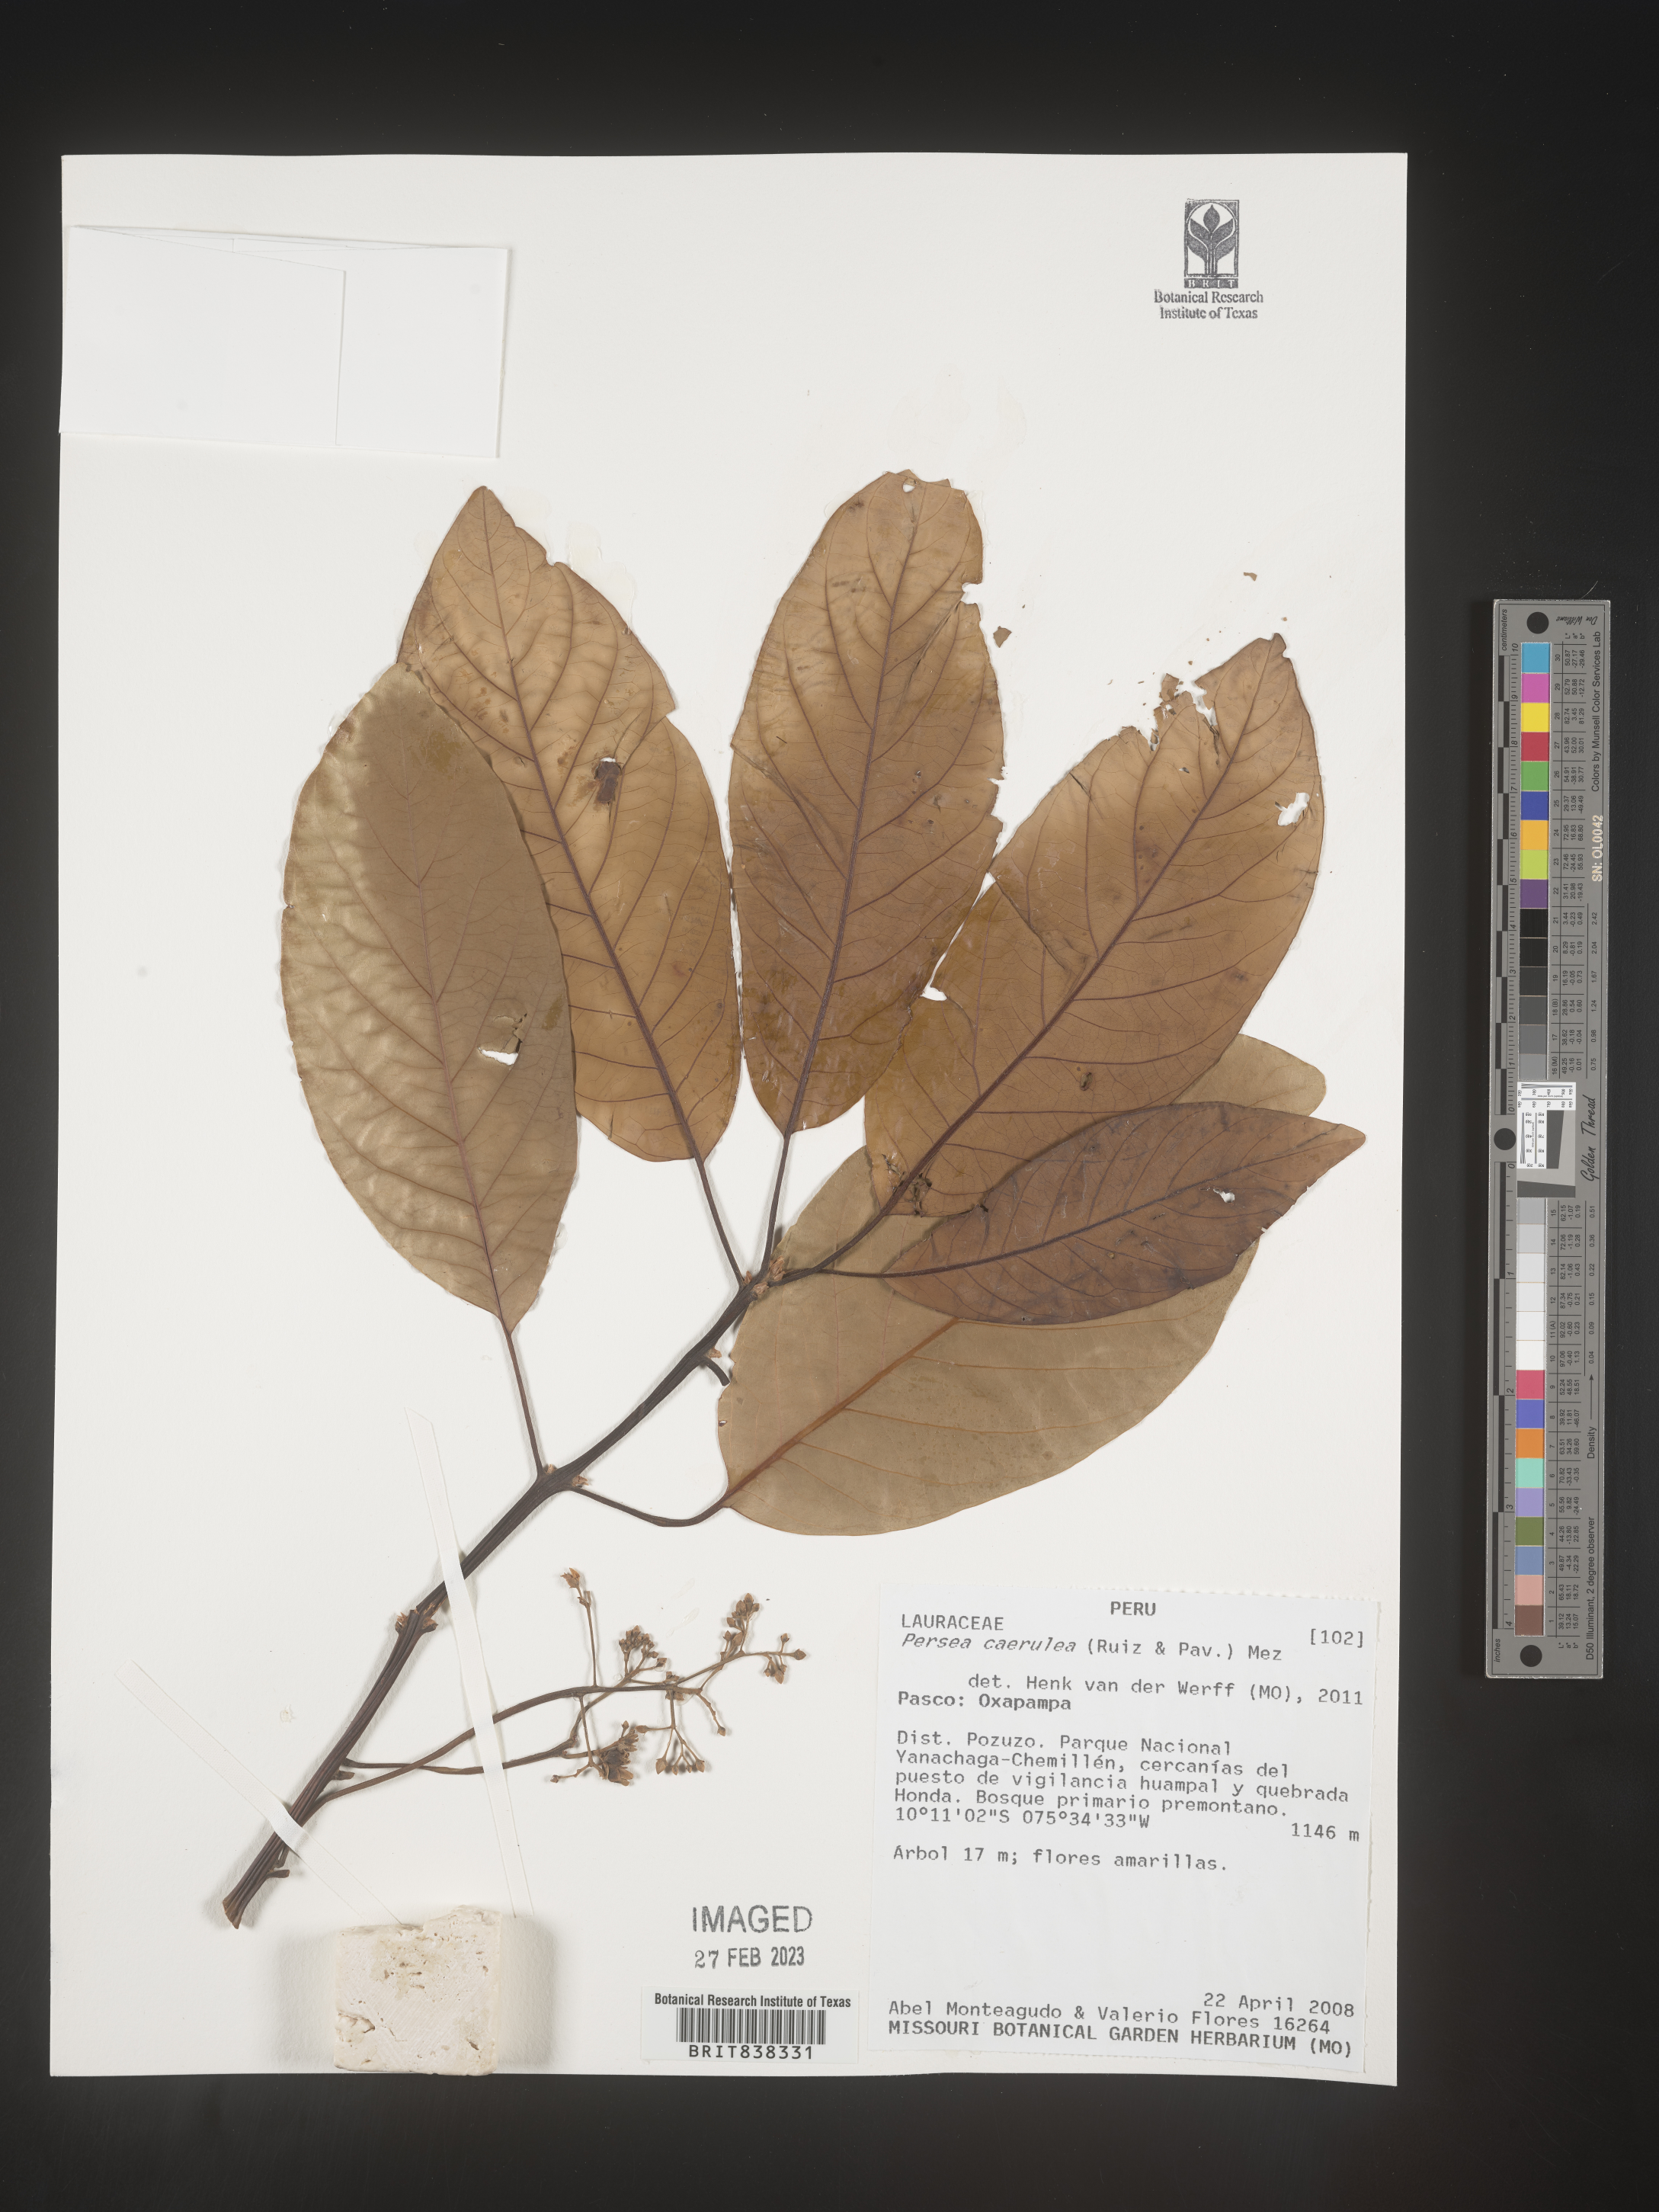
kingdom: Plantae
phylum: Tracheophyta
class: Magnoliopsida
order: Laurales
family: Lauraceae
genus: Persea
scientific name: Persea caerulea
